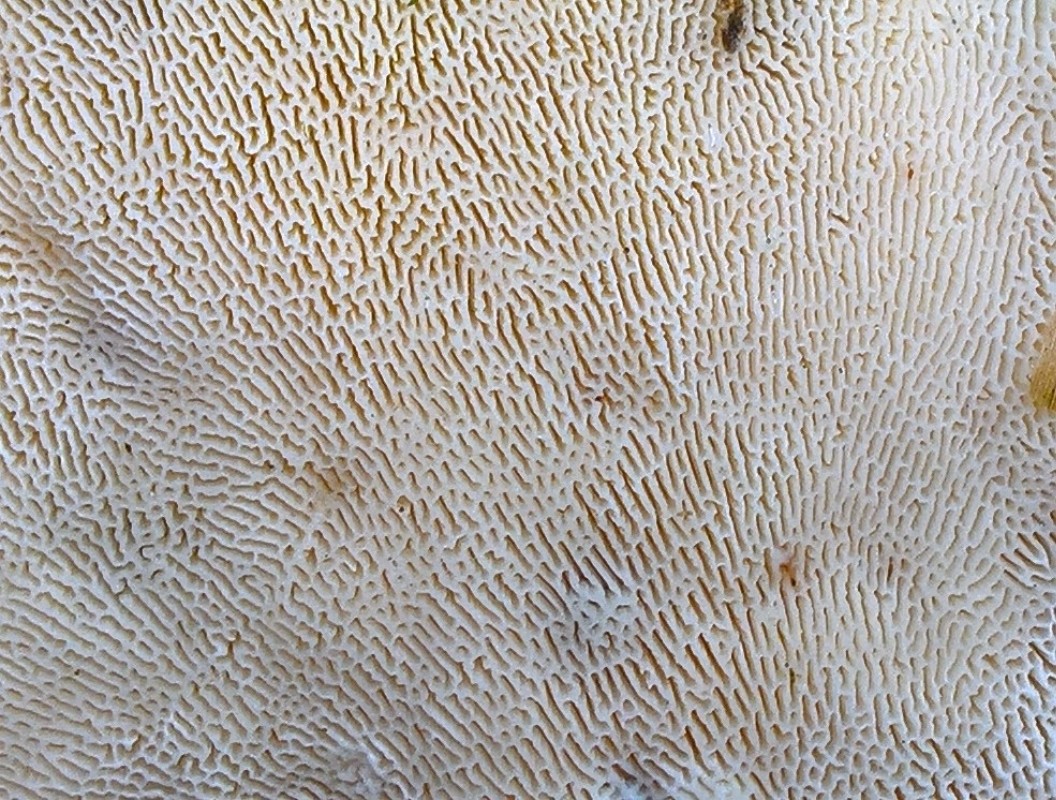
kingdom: Fungi
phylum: Basidiomycota
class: Agaricomycetes
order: Polyporales
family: Polyporaceae
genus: Trametes
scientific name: Trametes gibbosa
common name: puklet læderporesvamp
